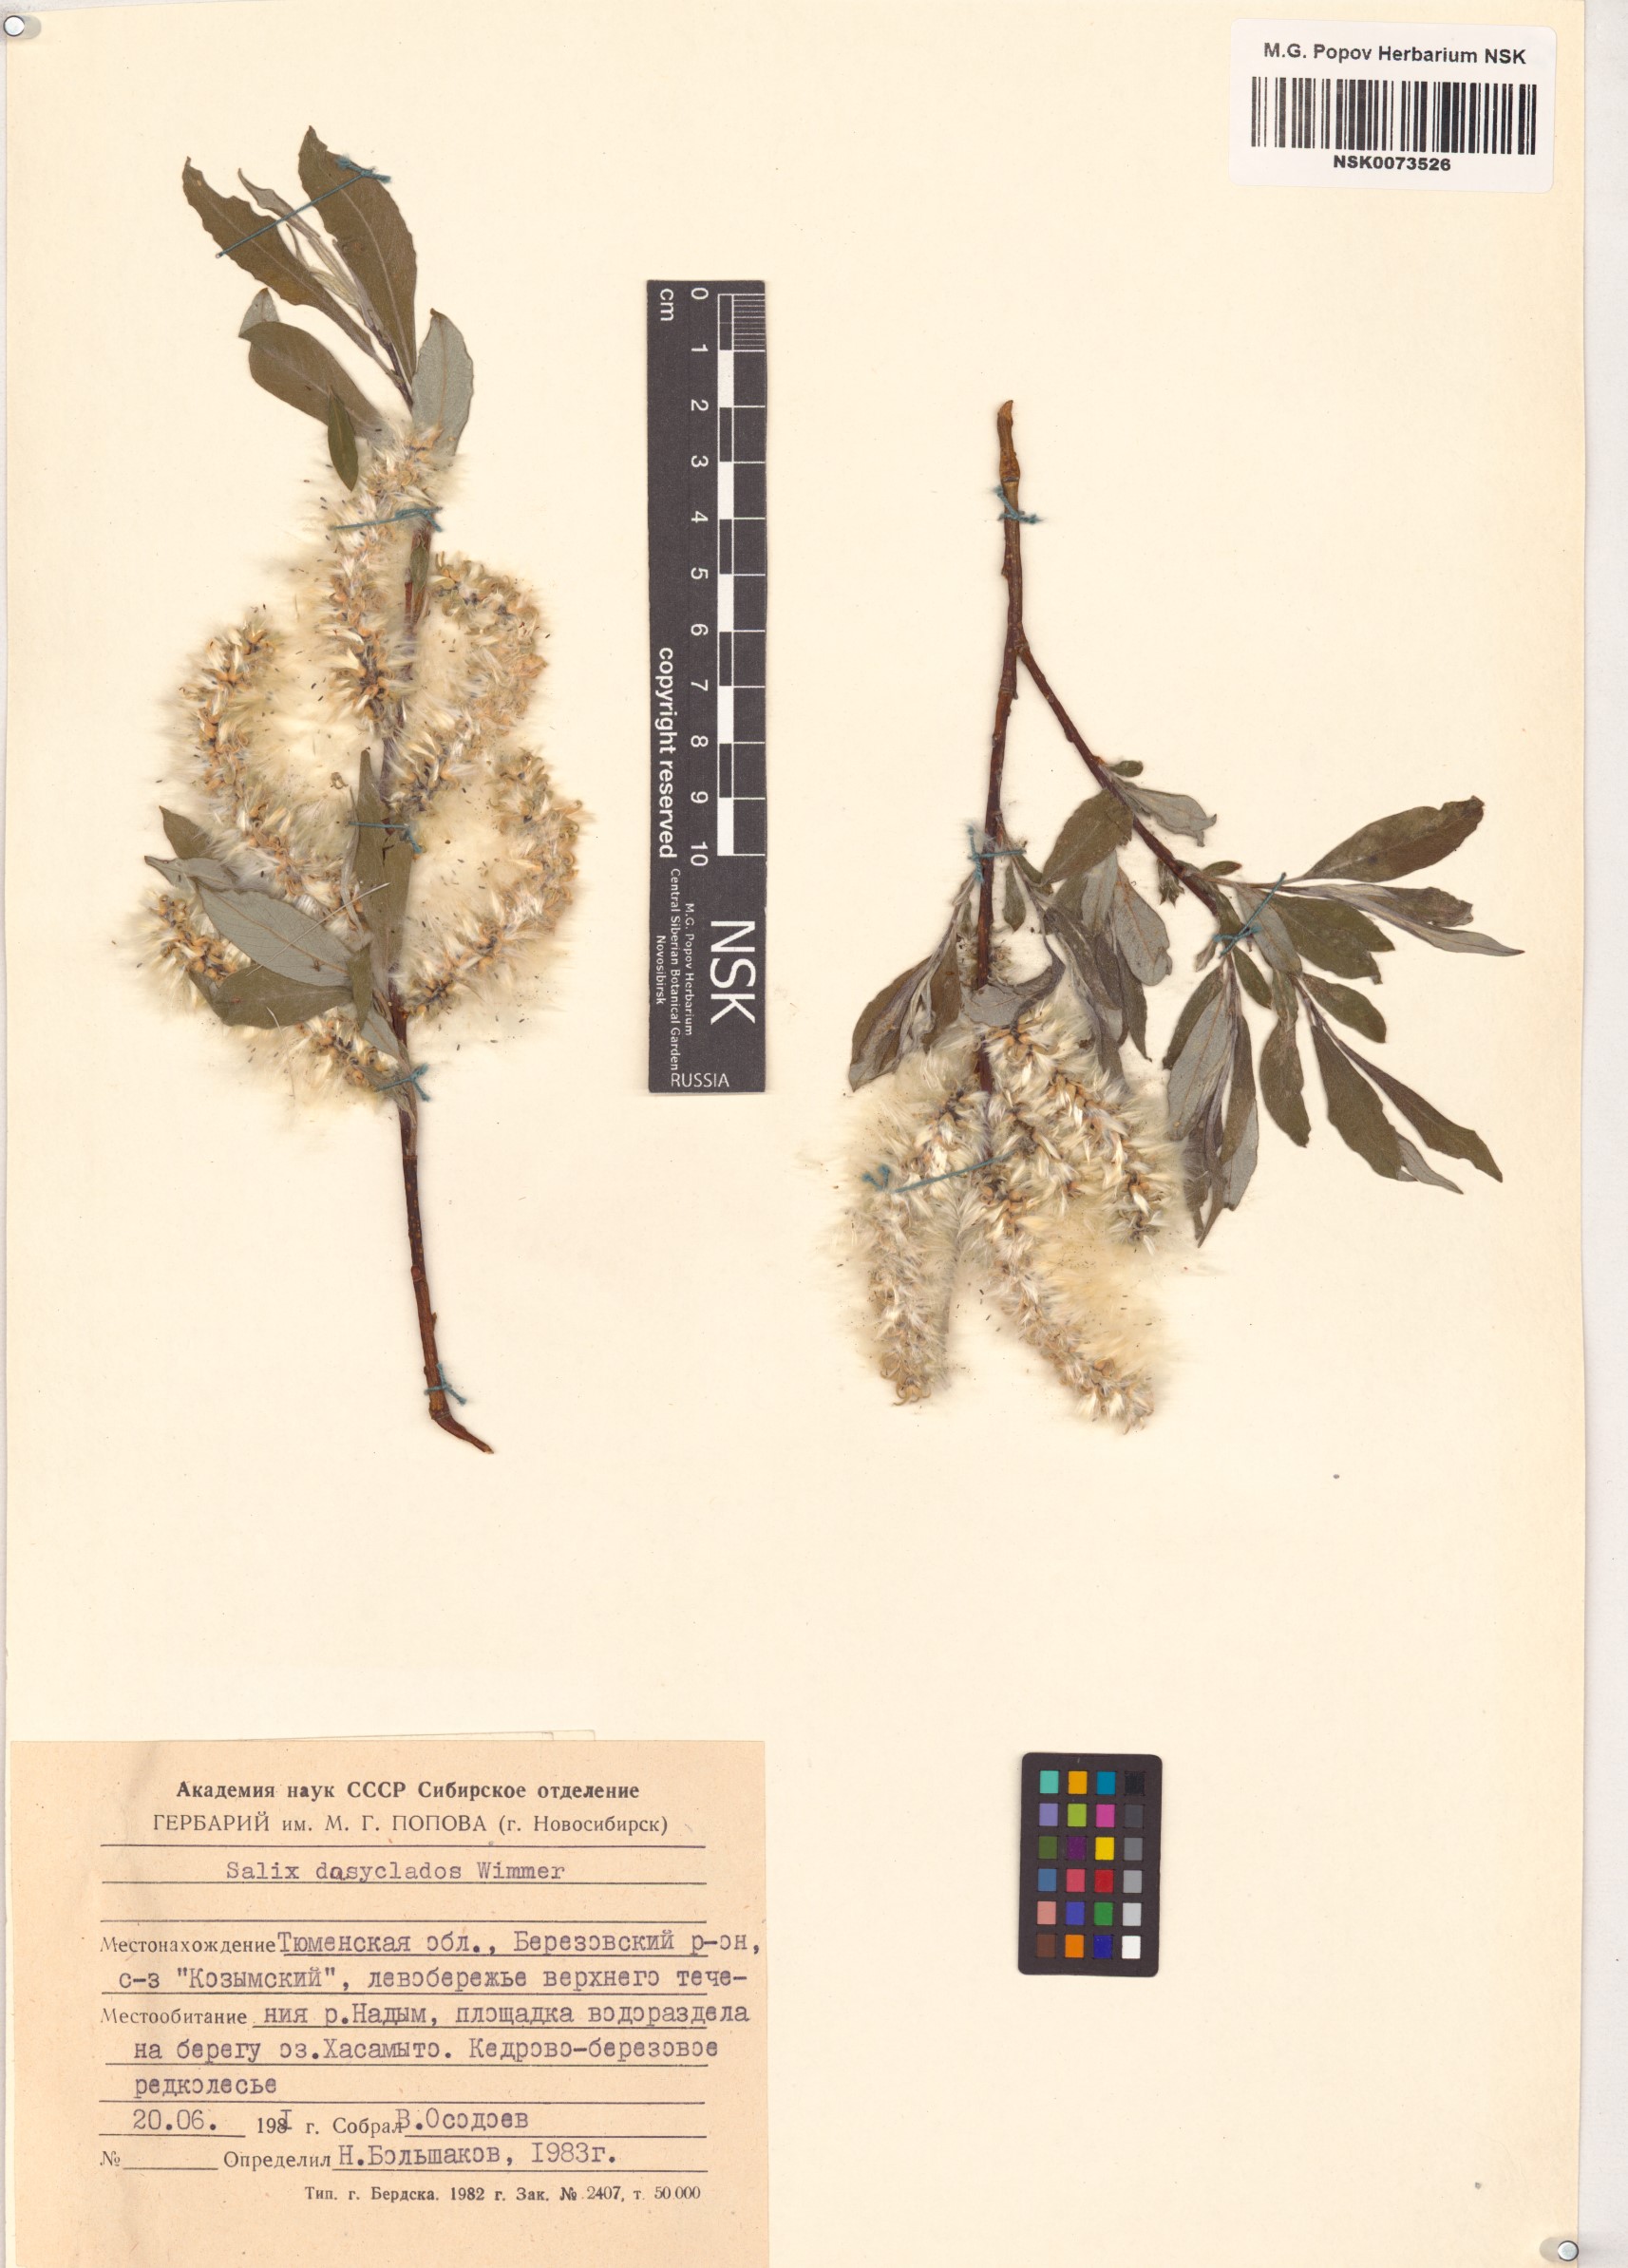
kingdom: Plantae
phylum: Tracheophyta
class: Magnoliopsida
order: Malpighiales
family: Salicaceae
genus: Salix
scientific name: Salix gmelinii
